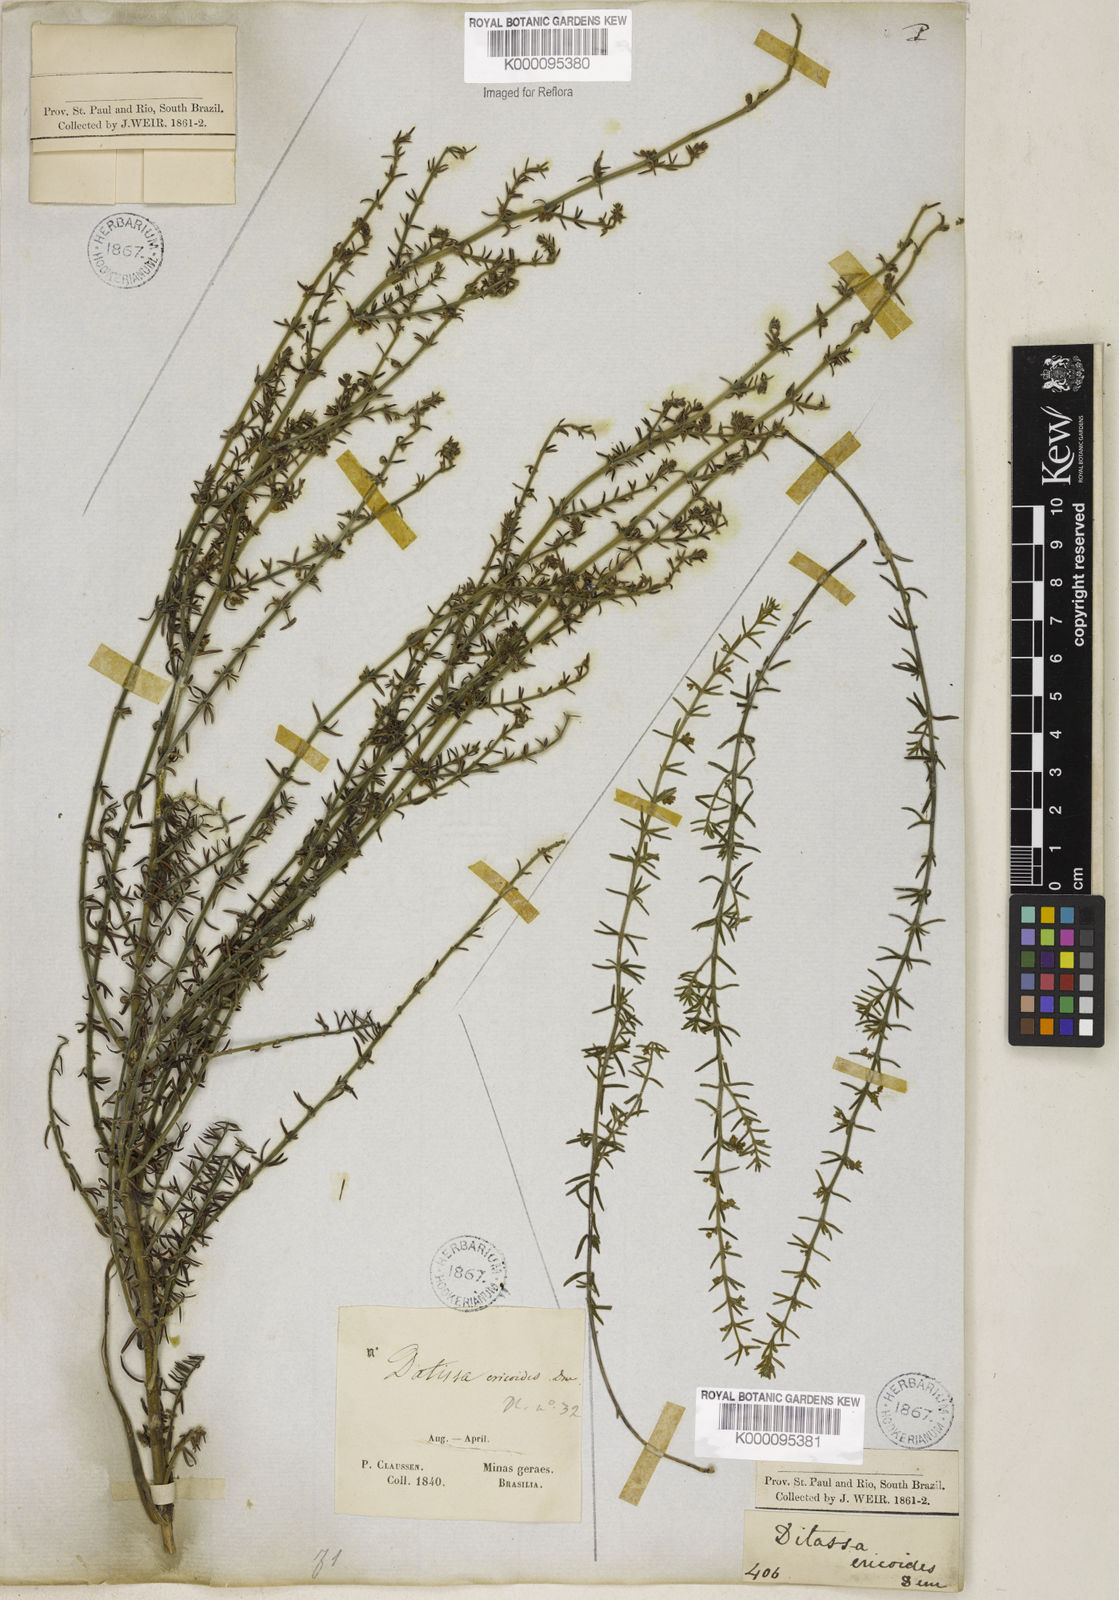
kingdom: Plantae
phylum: Tracheophyta
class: Magnoliopsida
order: Gentianales
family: Apocynaceae
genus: Minaria
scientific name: Minaria acerosa
